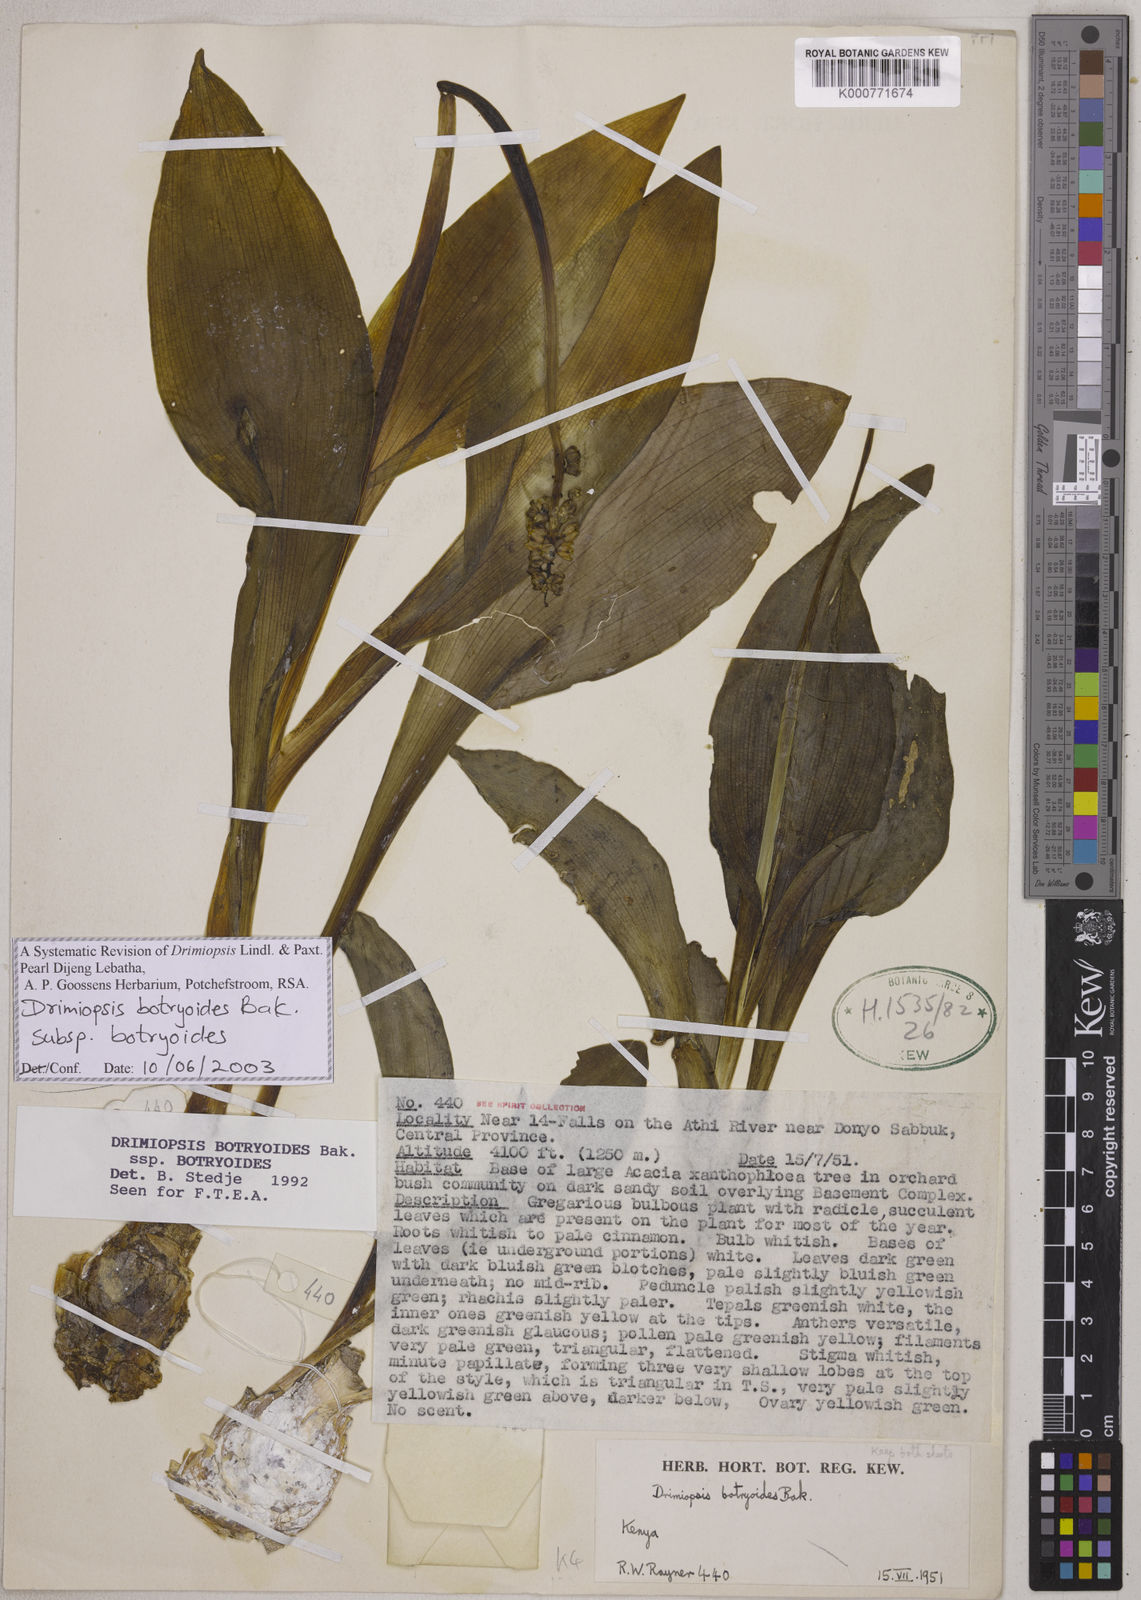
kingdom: Plantae
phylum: Tracheophyta
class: Liliopsida
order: Asparagales
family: Asparagaceae
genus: Drimiopsis
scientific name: Drimiopsis botryoides
